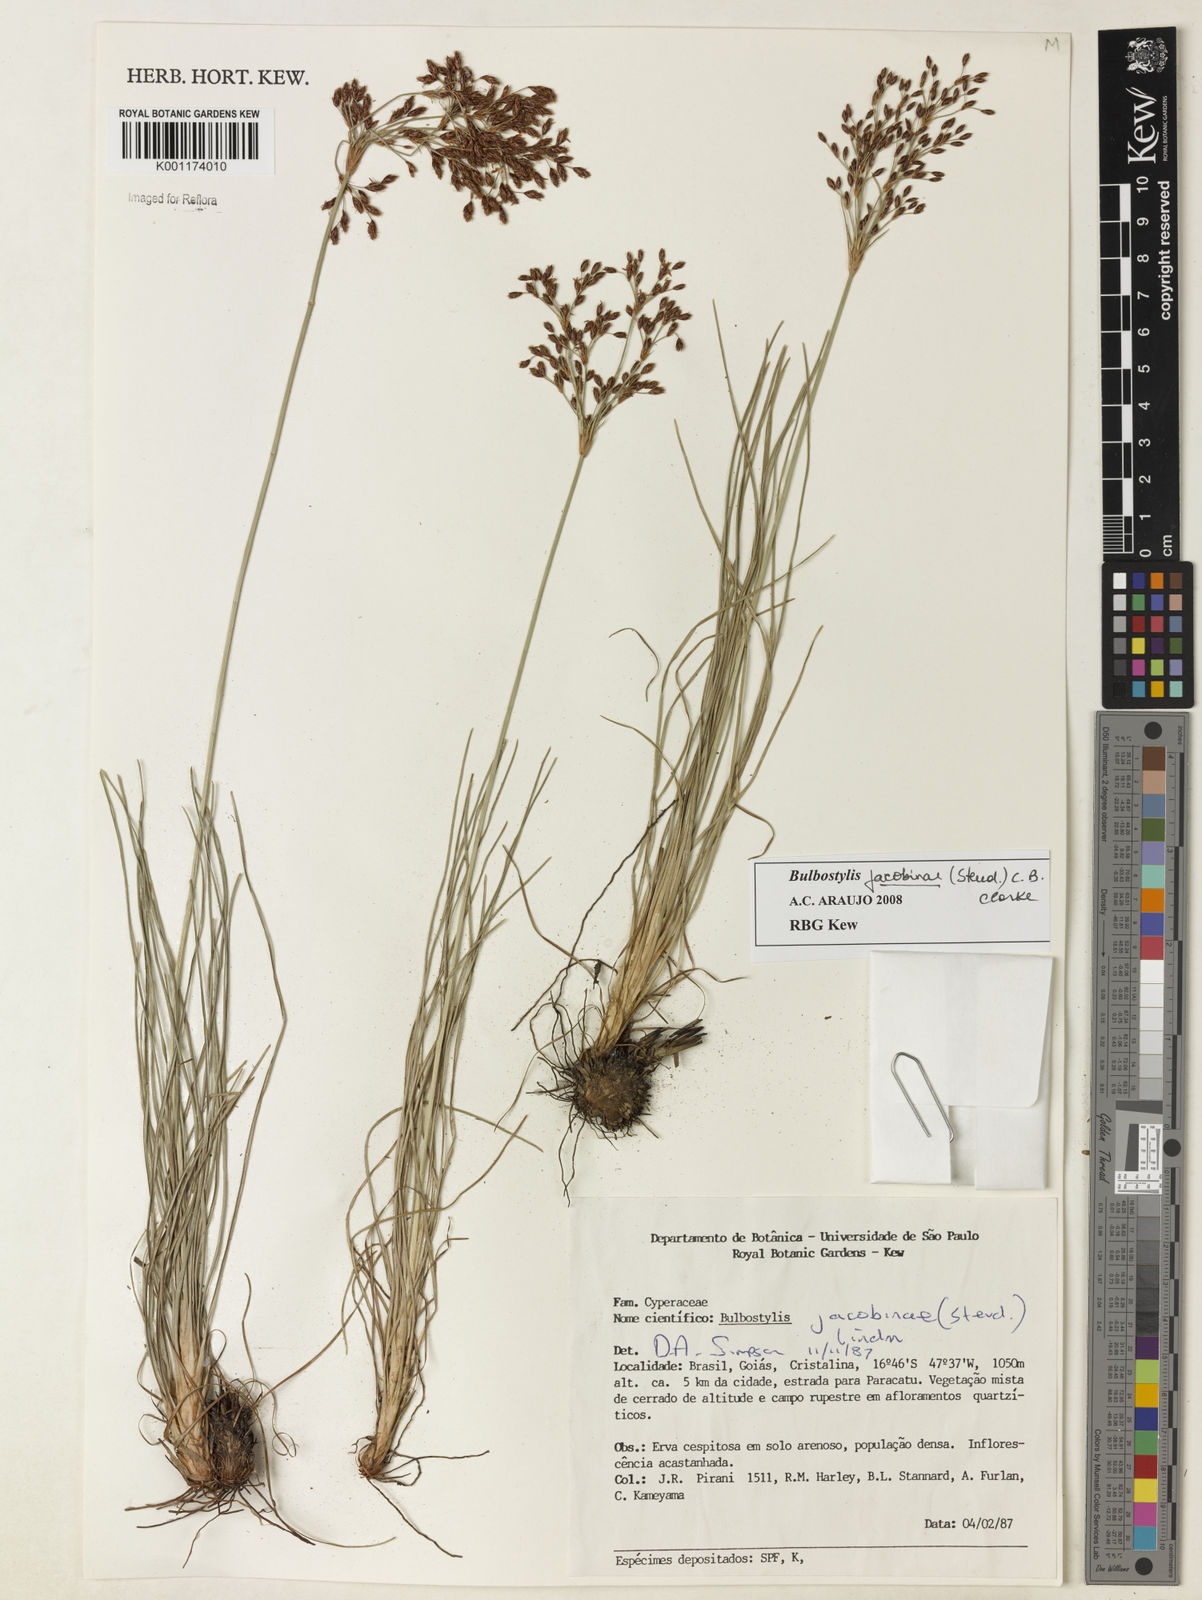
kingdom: Plantae
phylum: Tracheophyta
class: Liliopsida
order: Poales
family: Cyperaceae
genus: Bulbostylis
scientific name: Bulbostylis jacobinae
